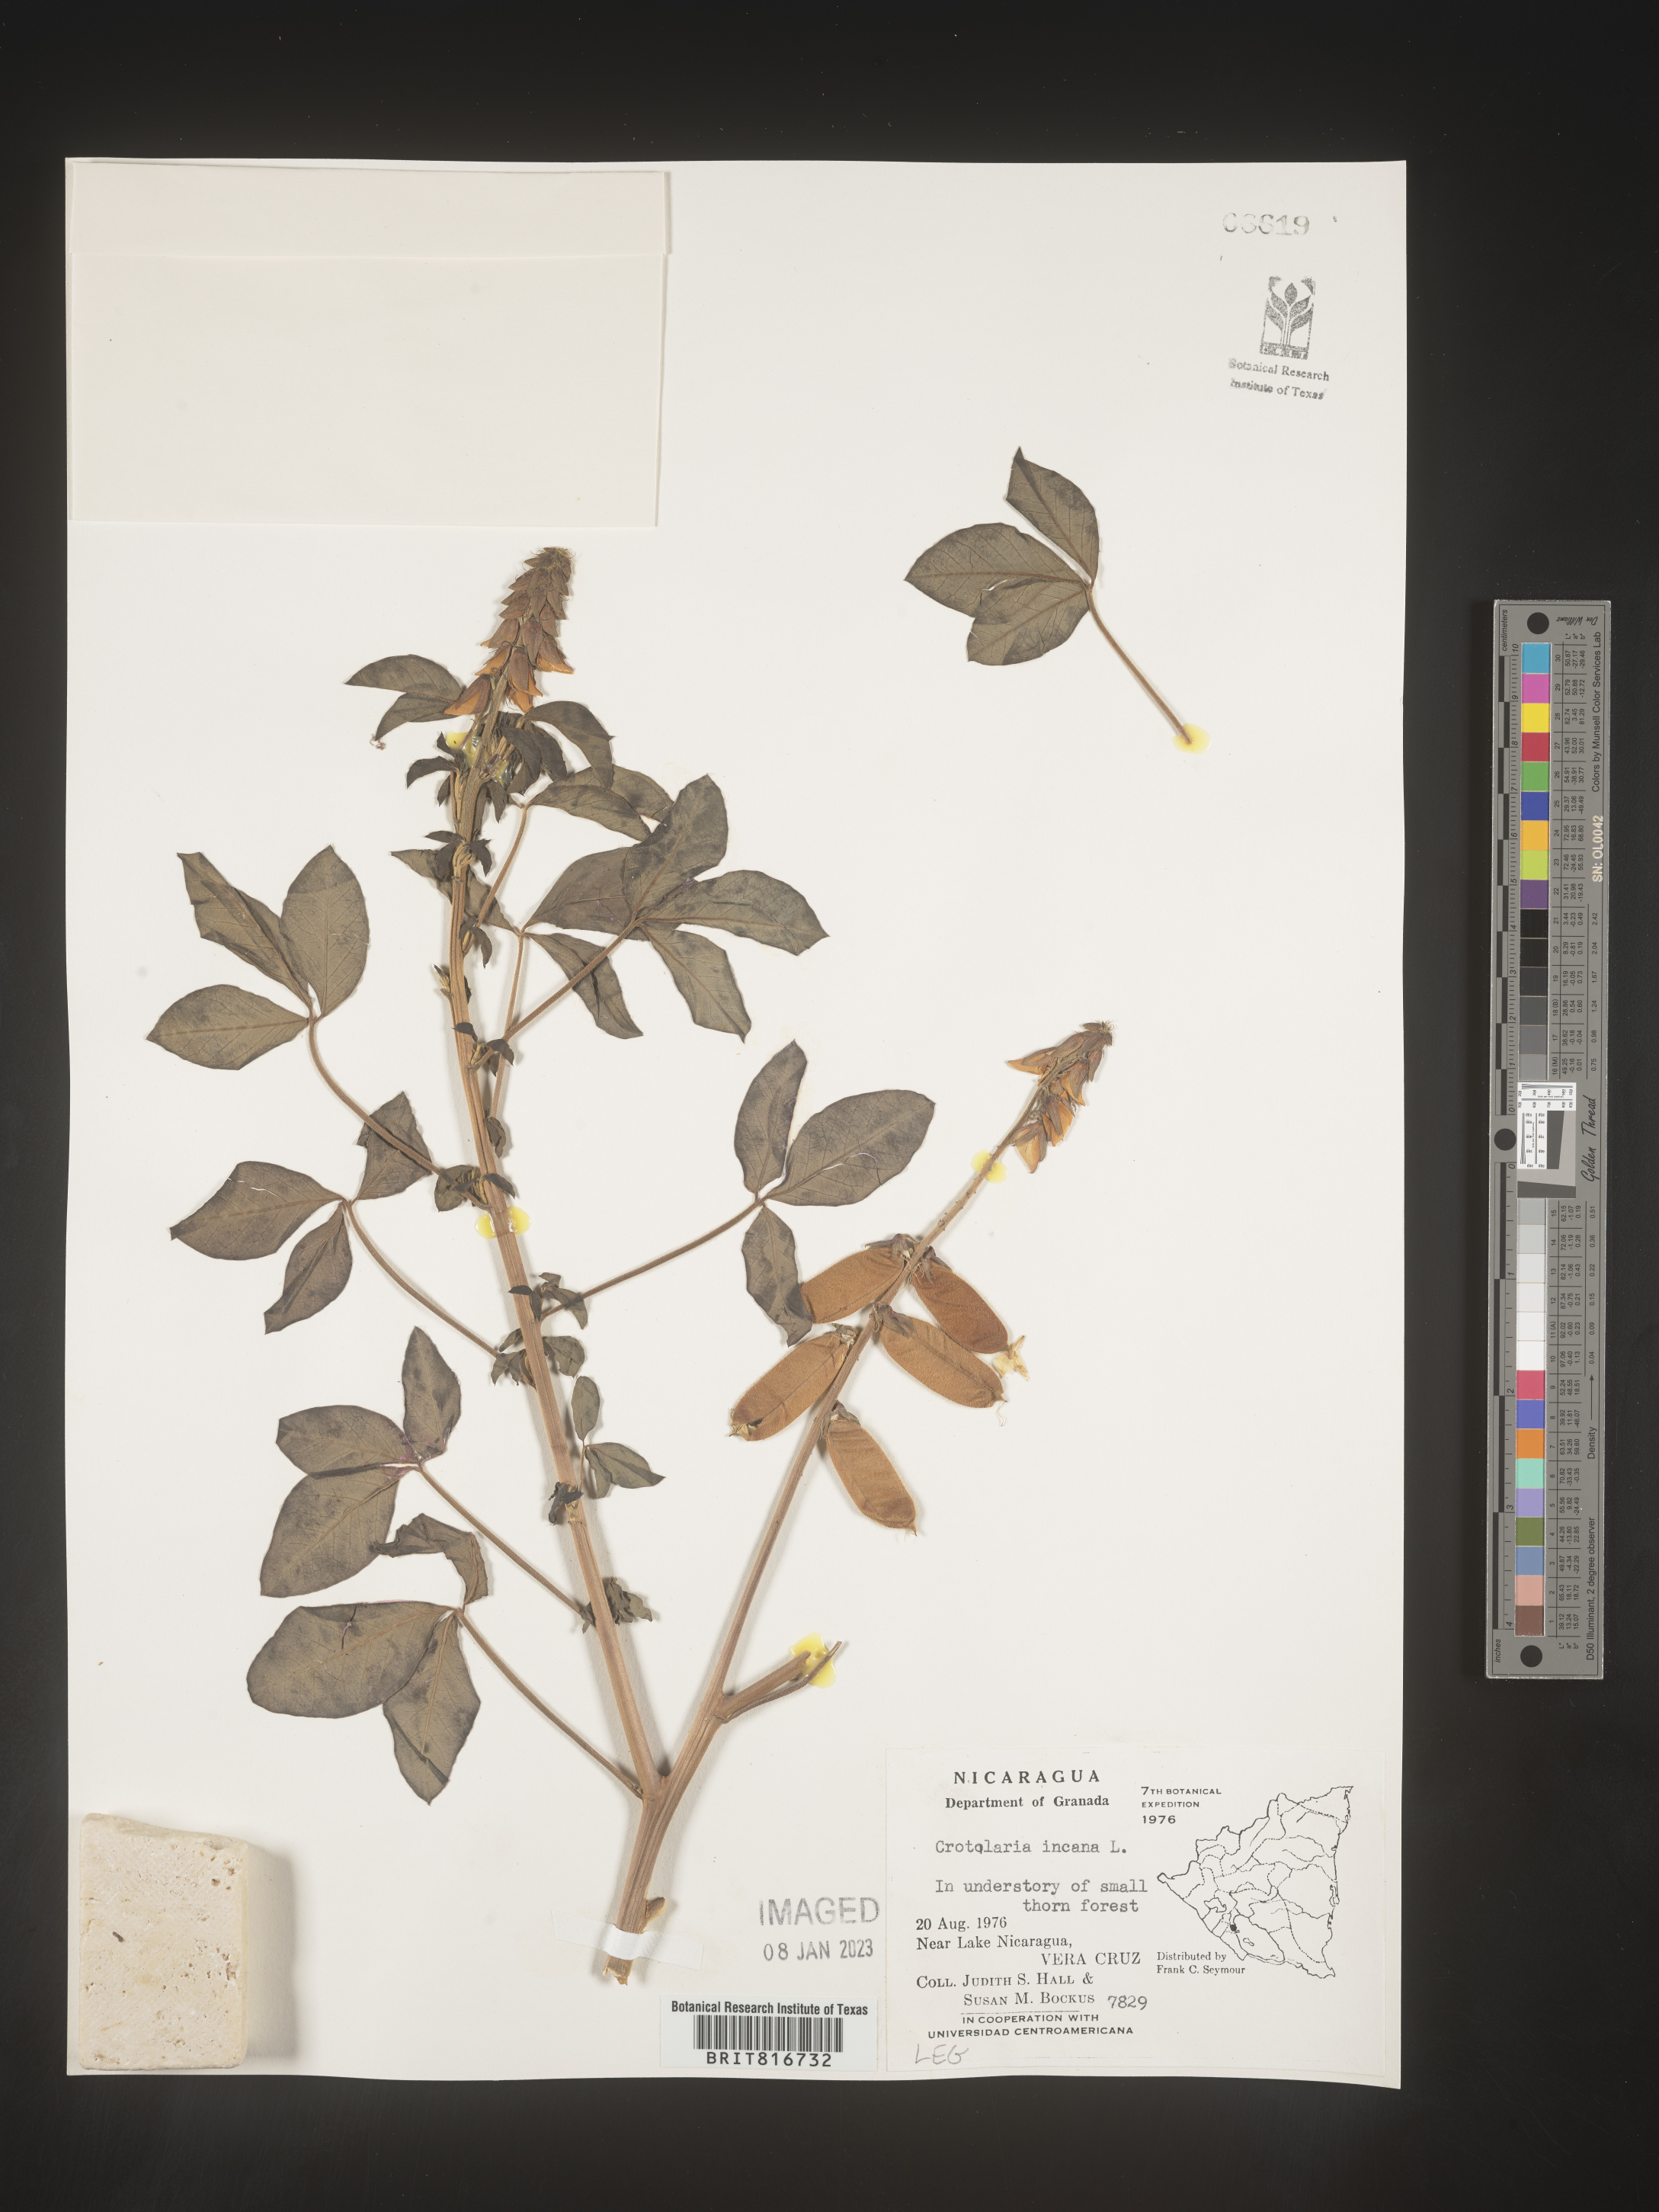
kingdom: Plantae
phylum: Tracheophyta
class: Magnoliopsida
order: Fabales
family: Fabaceae
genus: Crotalaria
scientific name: Crotalaria
